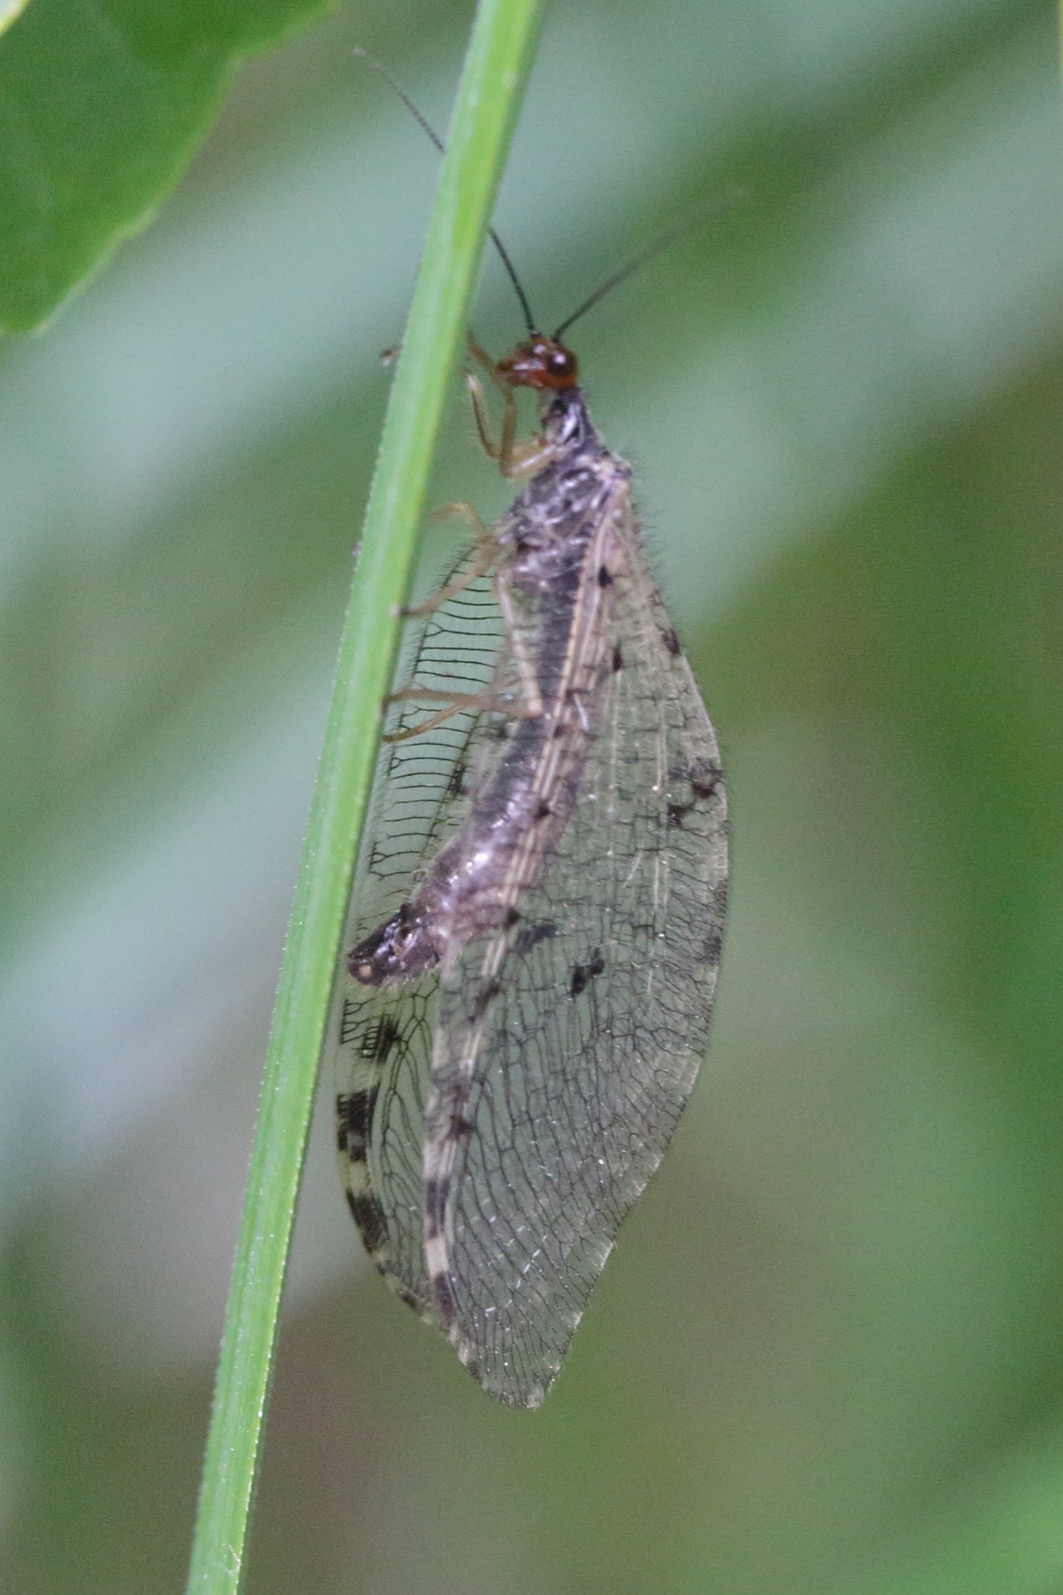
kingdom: Animalia
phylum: Arthropoda
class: Insecta
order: Trichoptera
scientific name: Trichoptera
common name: Vårfluer
